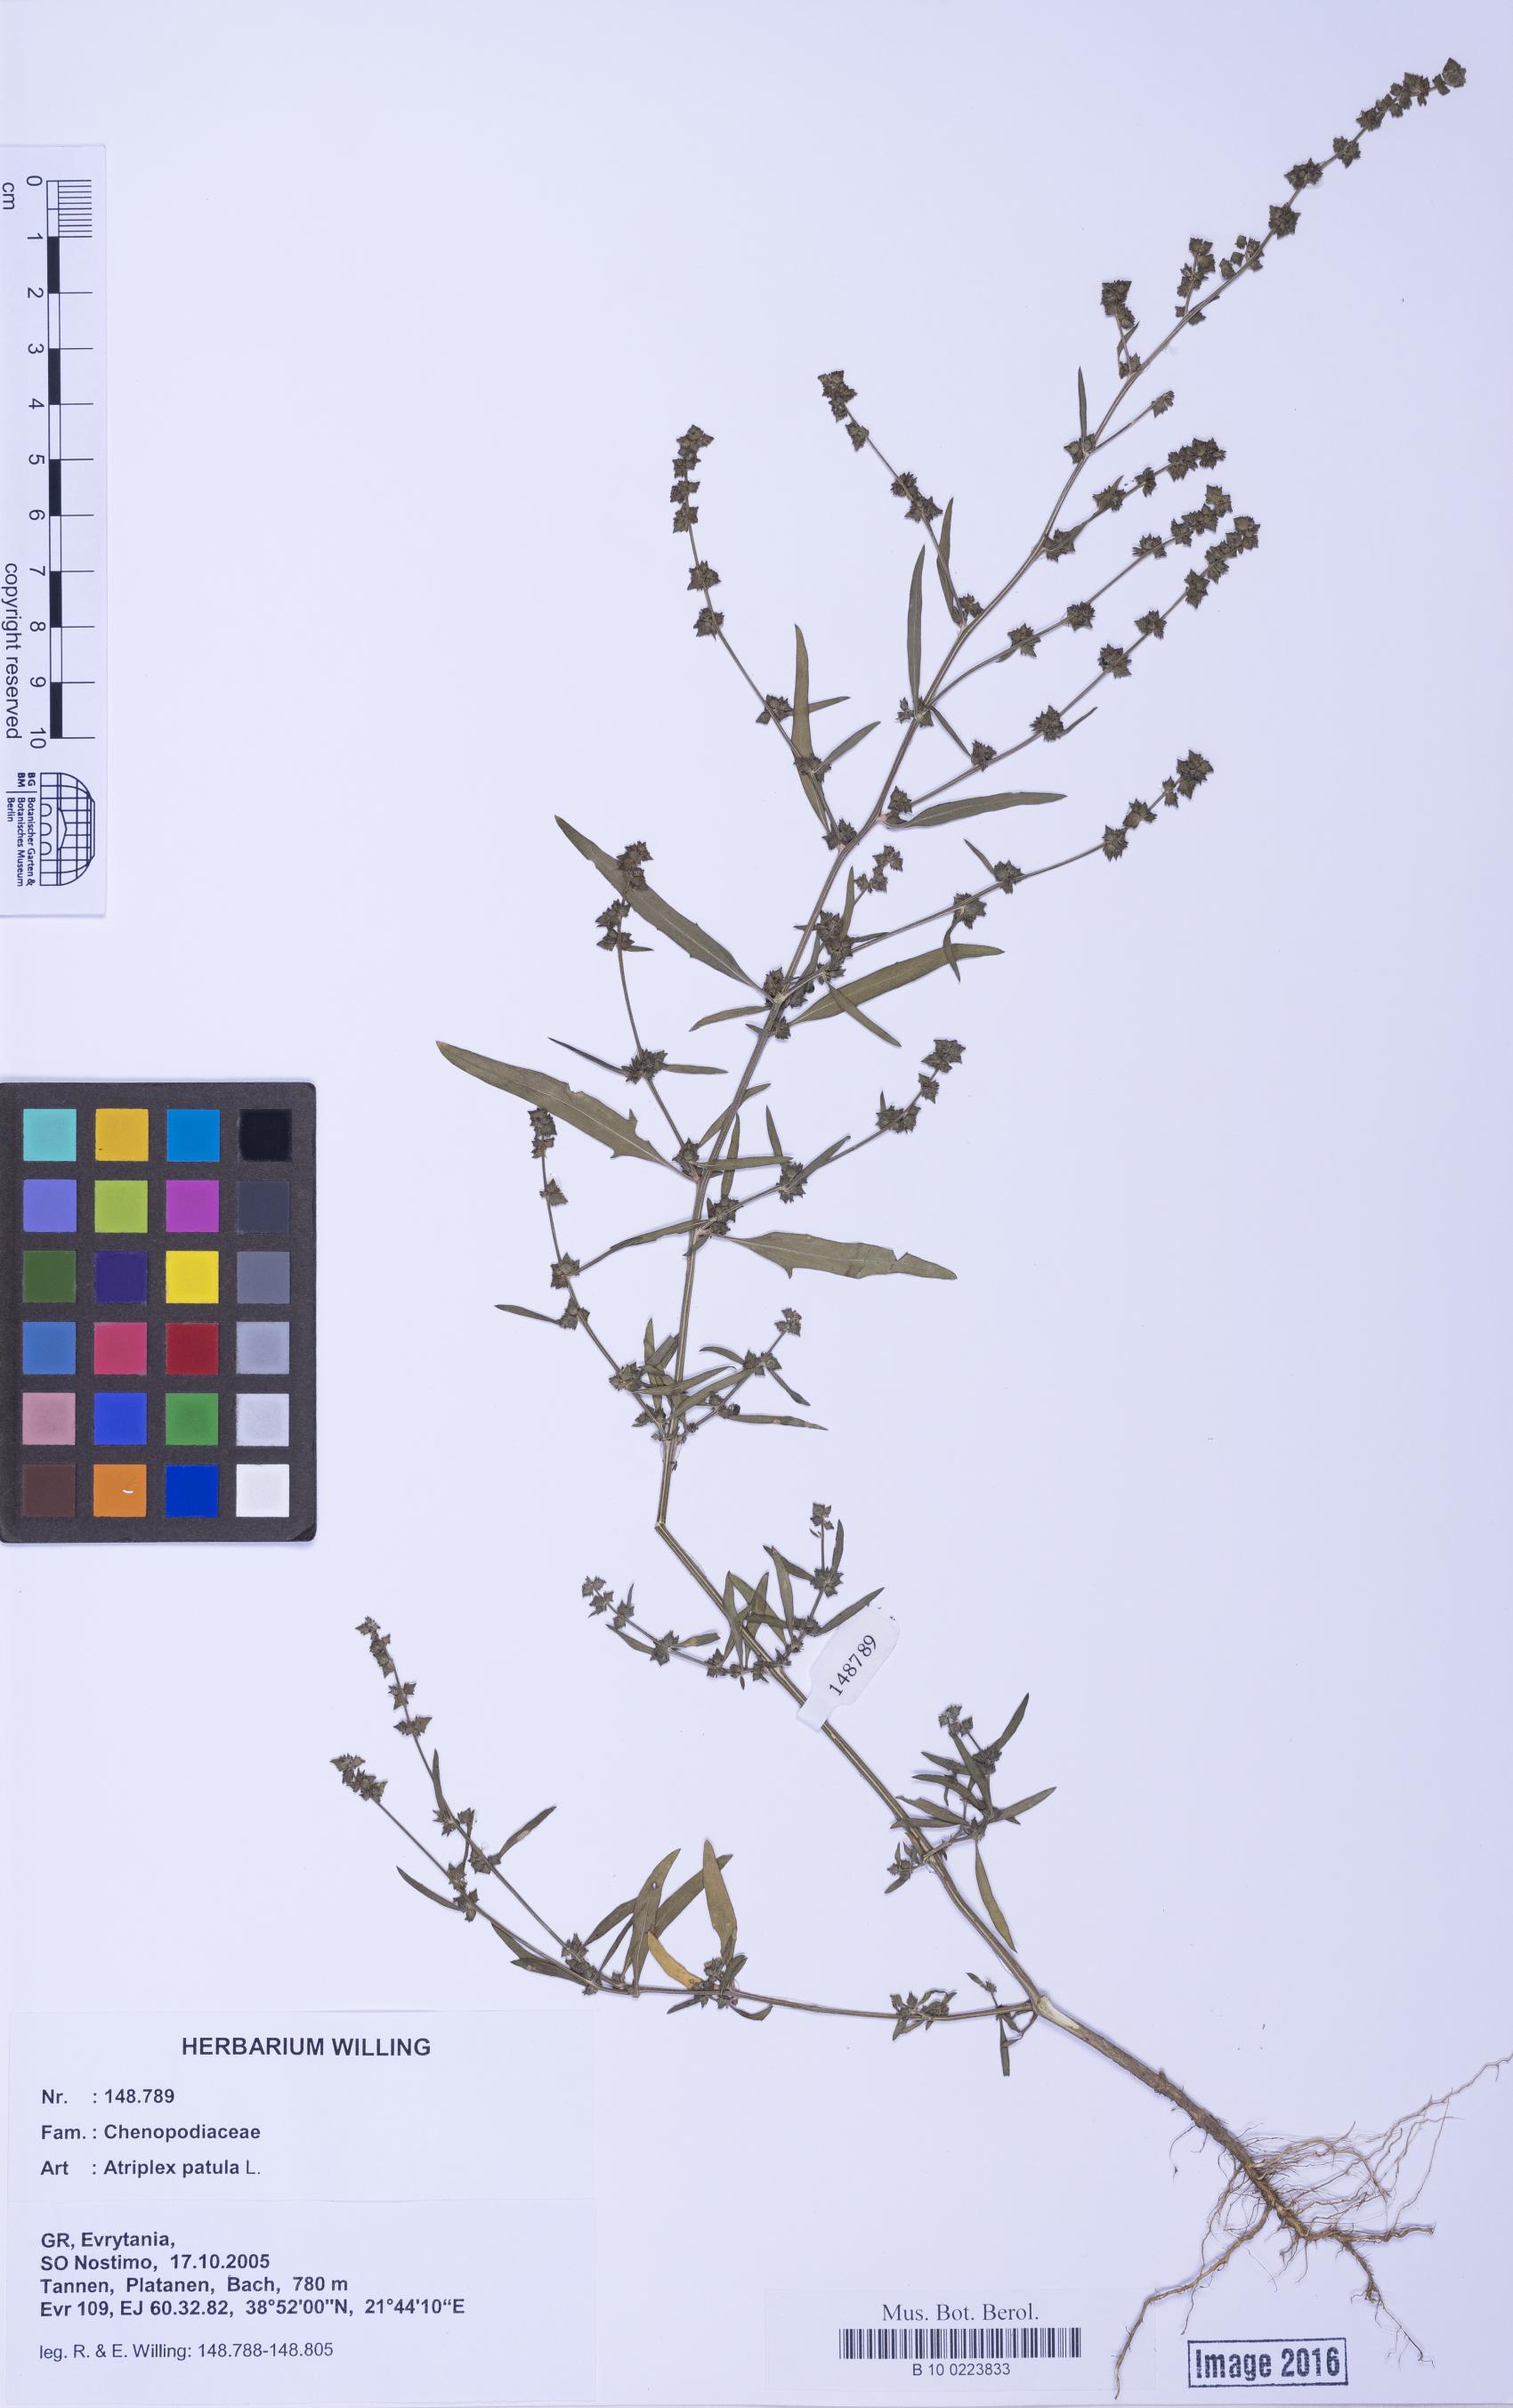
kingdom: Plantae
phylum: Tracheophyta
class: Magnoliopsida
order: Caryophyllales
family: Amaranthaceae
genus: Atriplex
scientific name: Atriplex patula
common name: Common orache
